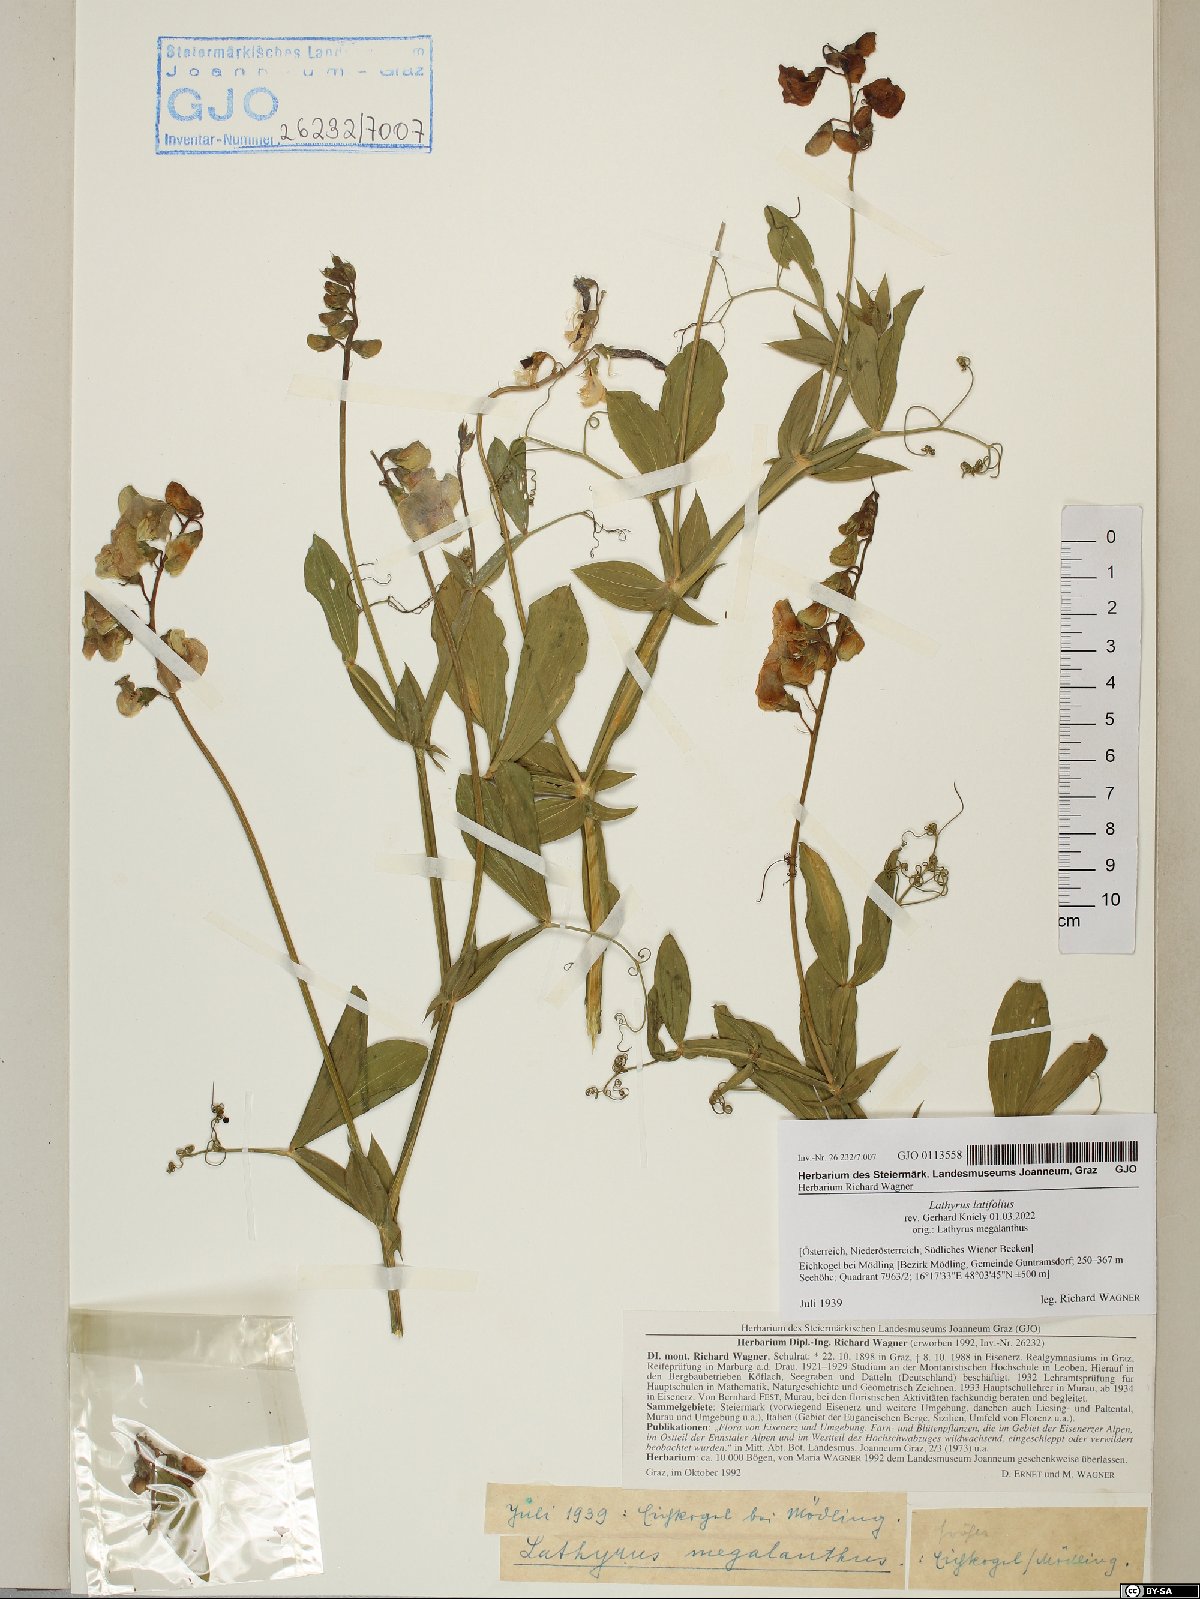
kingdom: Plantae
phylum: Tracheophyta
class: Magnoliopsida
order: Fabales
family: Fabaceae
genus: Lathyrus
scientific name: Lathyrus latifolius
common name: Perennial pea
